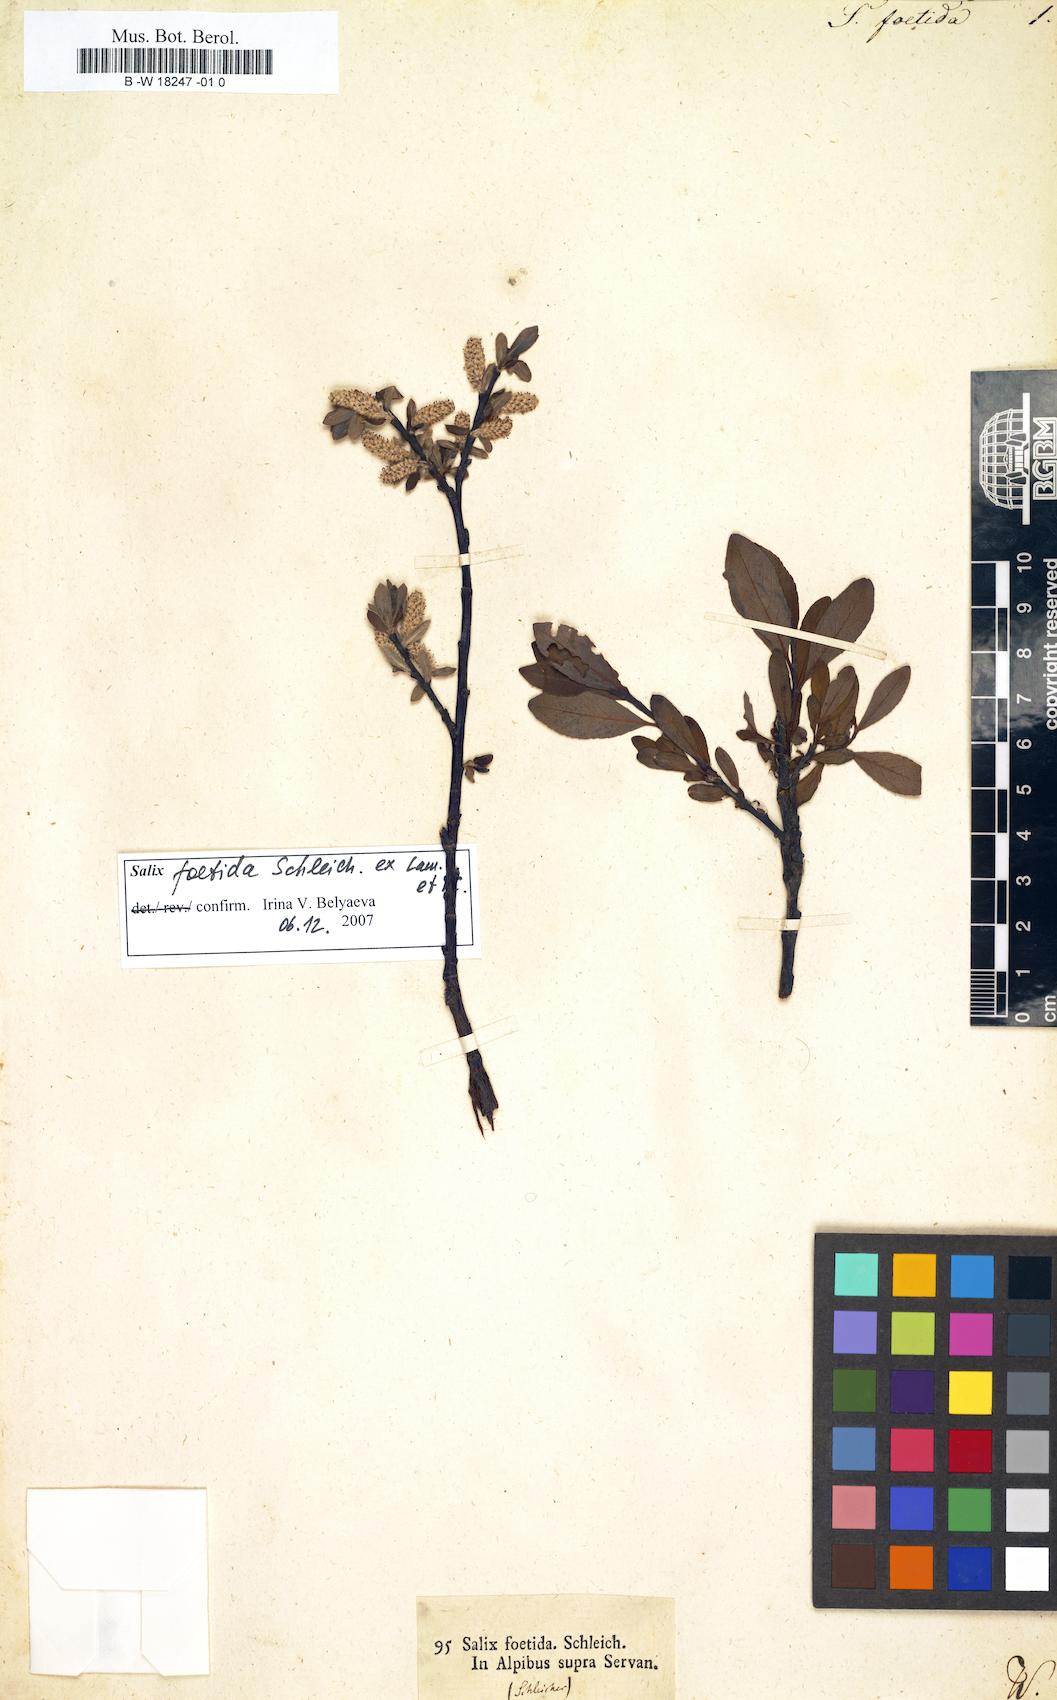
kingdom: Plantae
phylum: Tracheophyta
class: Magnoliopsida
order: Malpighiales
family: Salicaceae
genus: Salix
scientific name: Salix foetida
